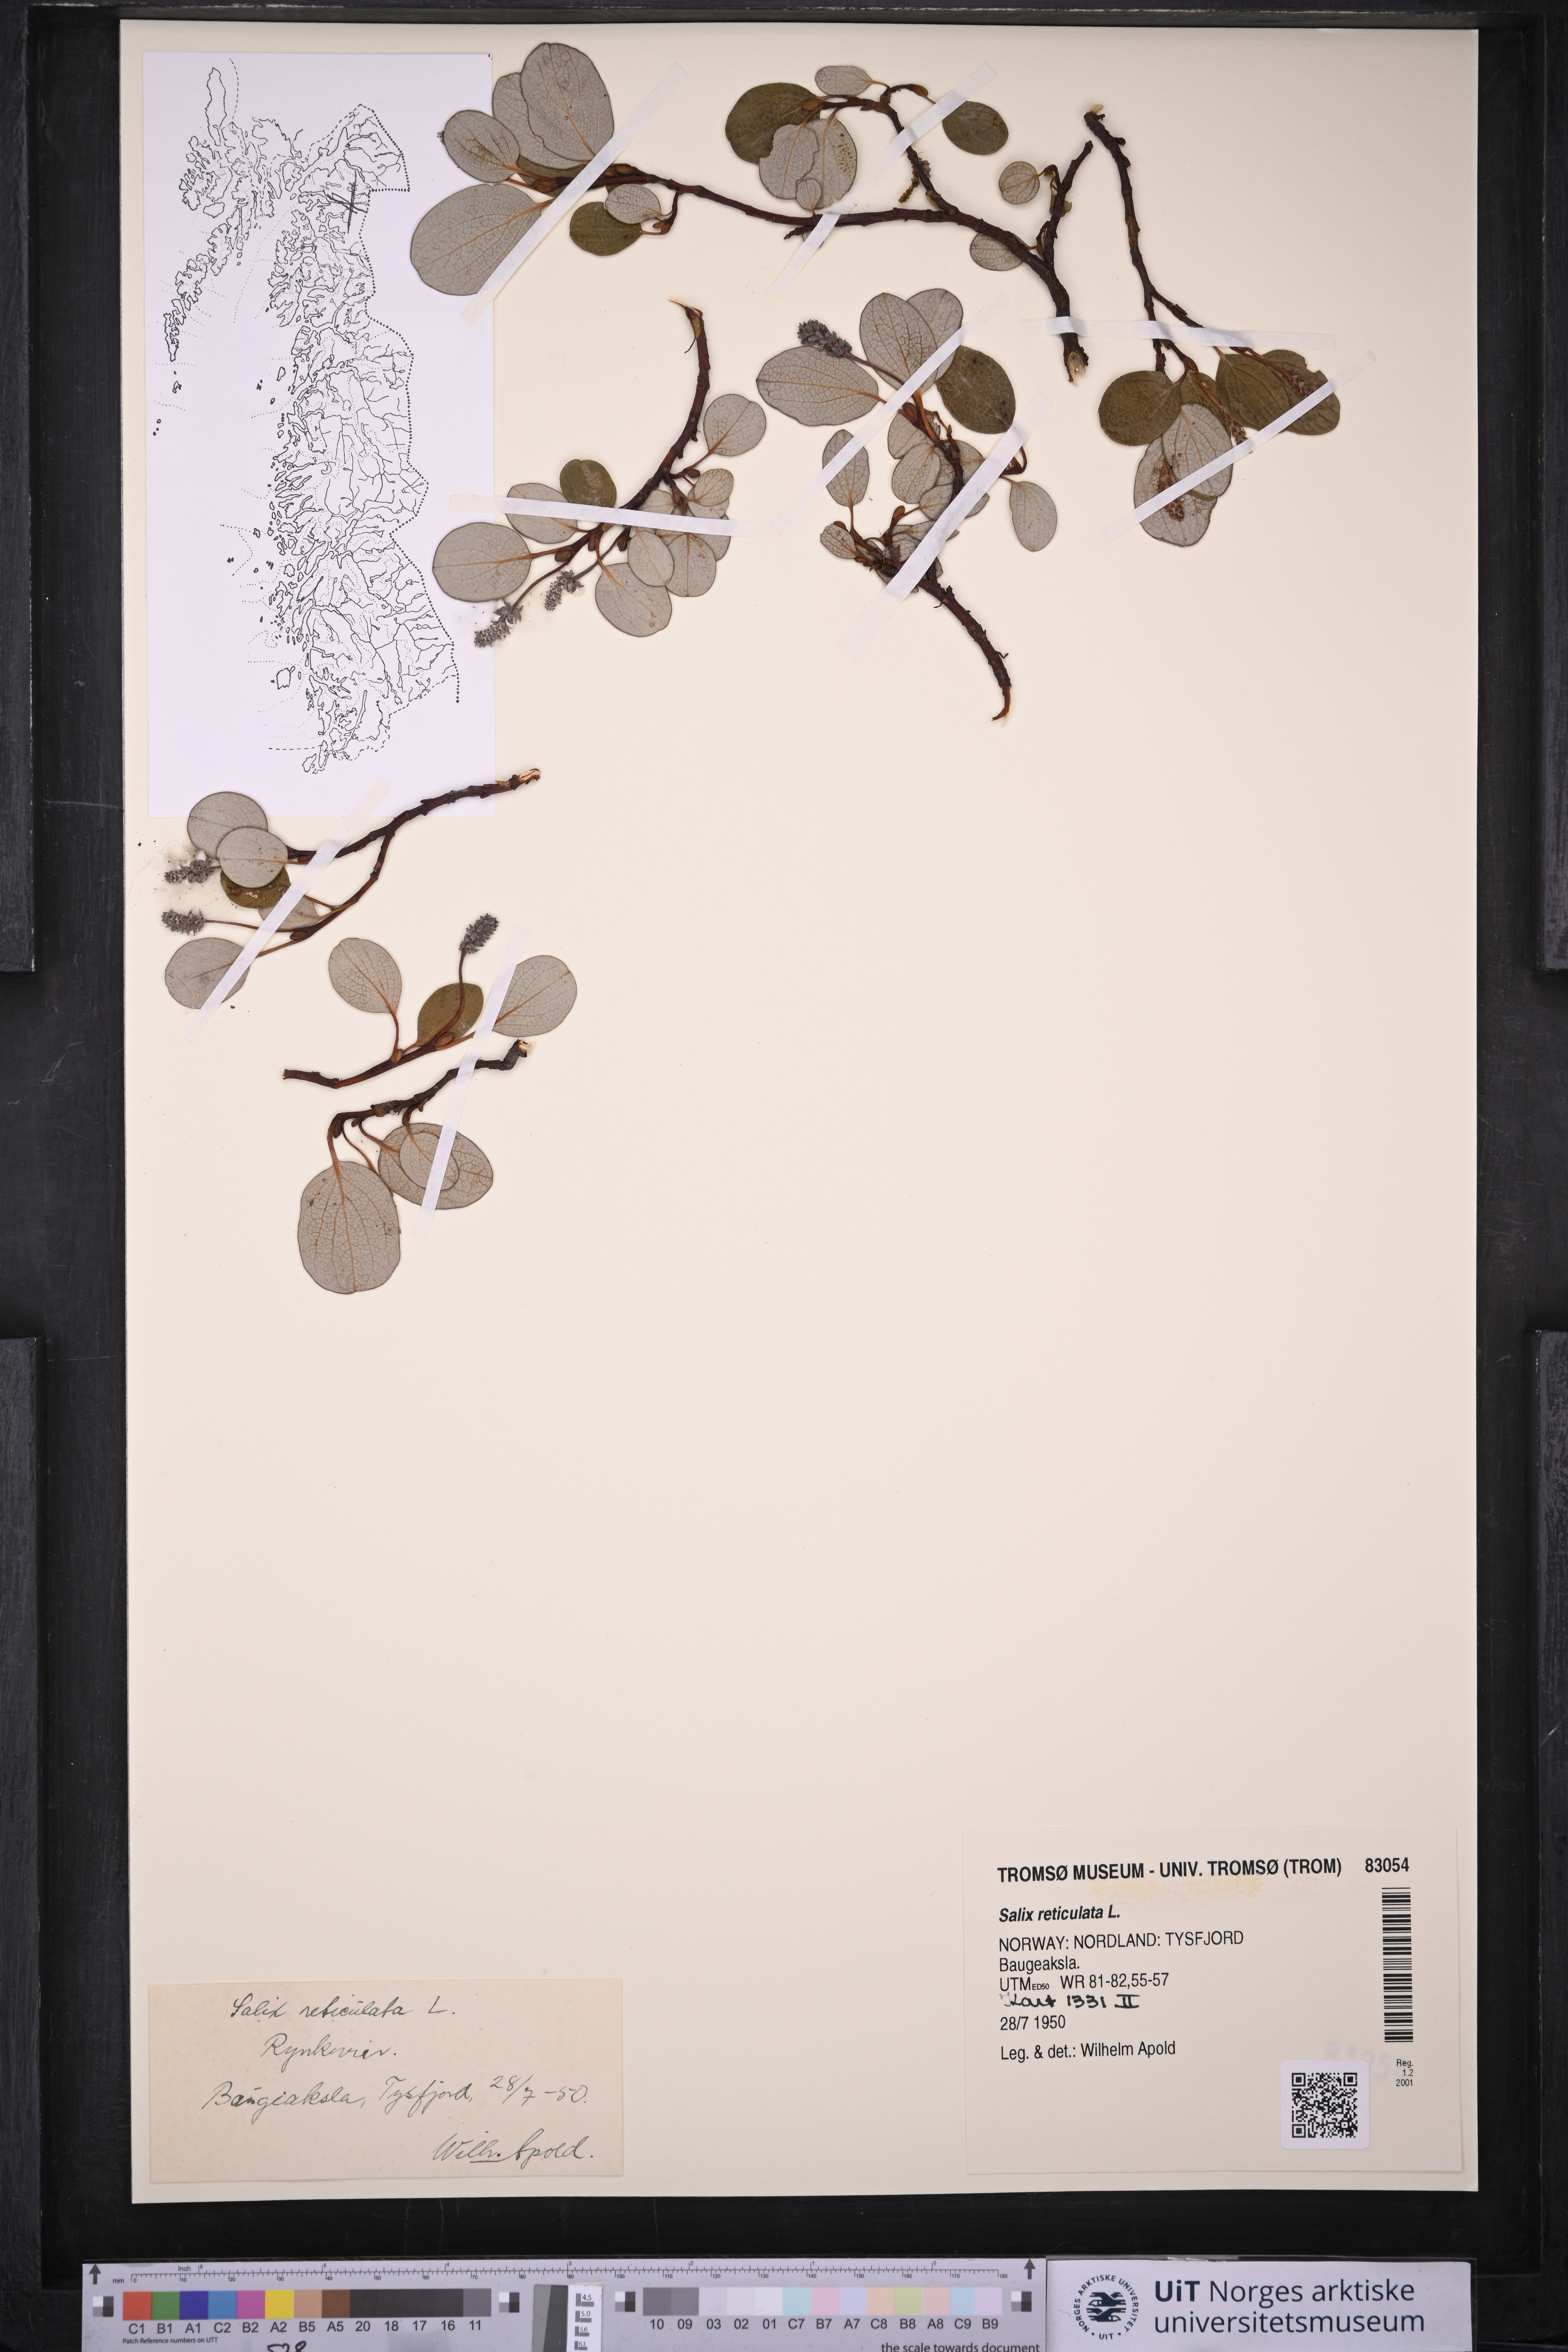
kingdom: Plantae
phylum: Tracheophyta
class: Magnoliopsida
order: Malpighiales
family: Salicaceae
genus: Salix
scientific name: Salix reticulata
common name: Net-leaved willow
